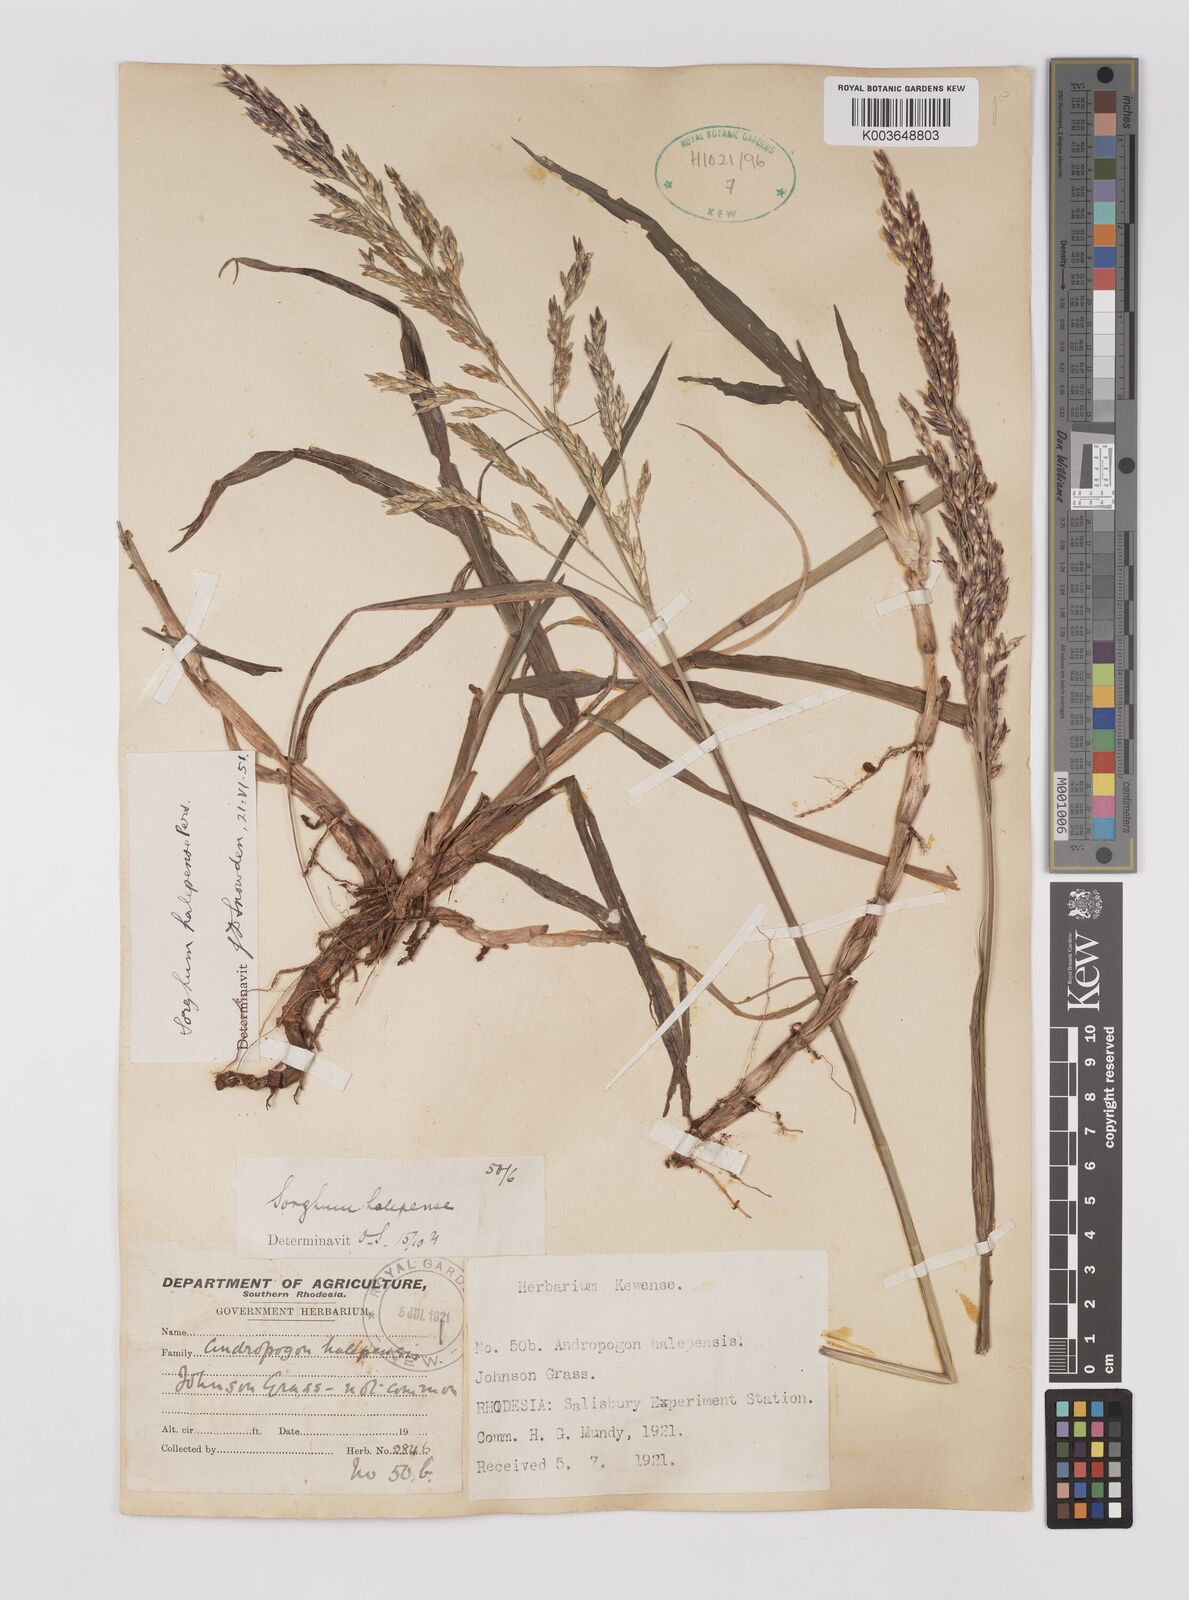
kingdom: Plantae
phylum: Tracheophyta
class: Liliopsida
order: Poales
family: Poaceae
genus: Sorghum
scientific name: Sorghum halepense
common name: Johnson-grass
